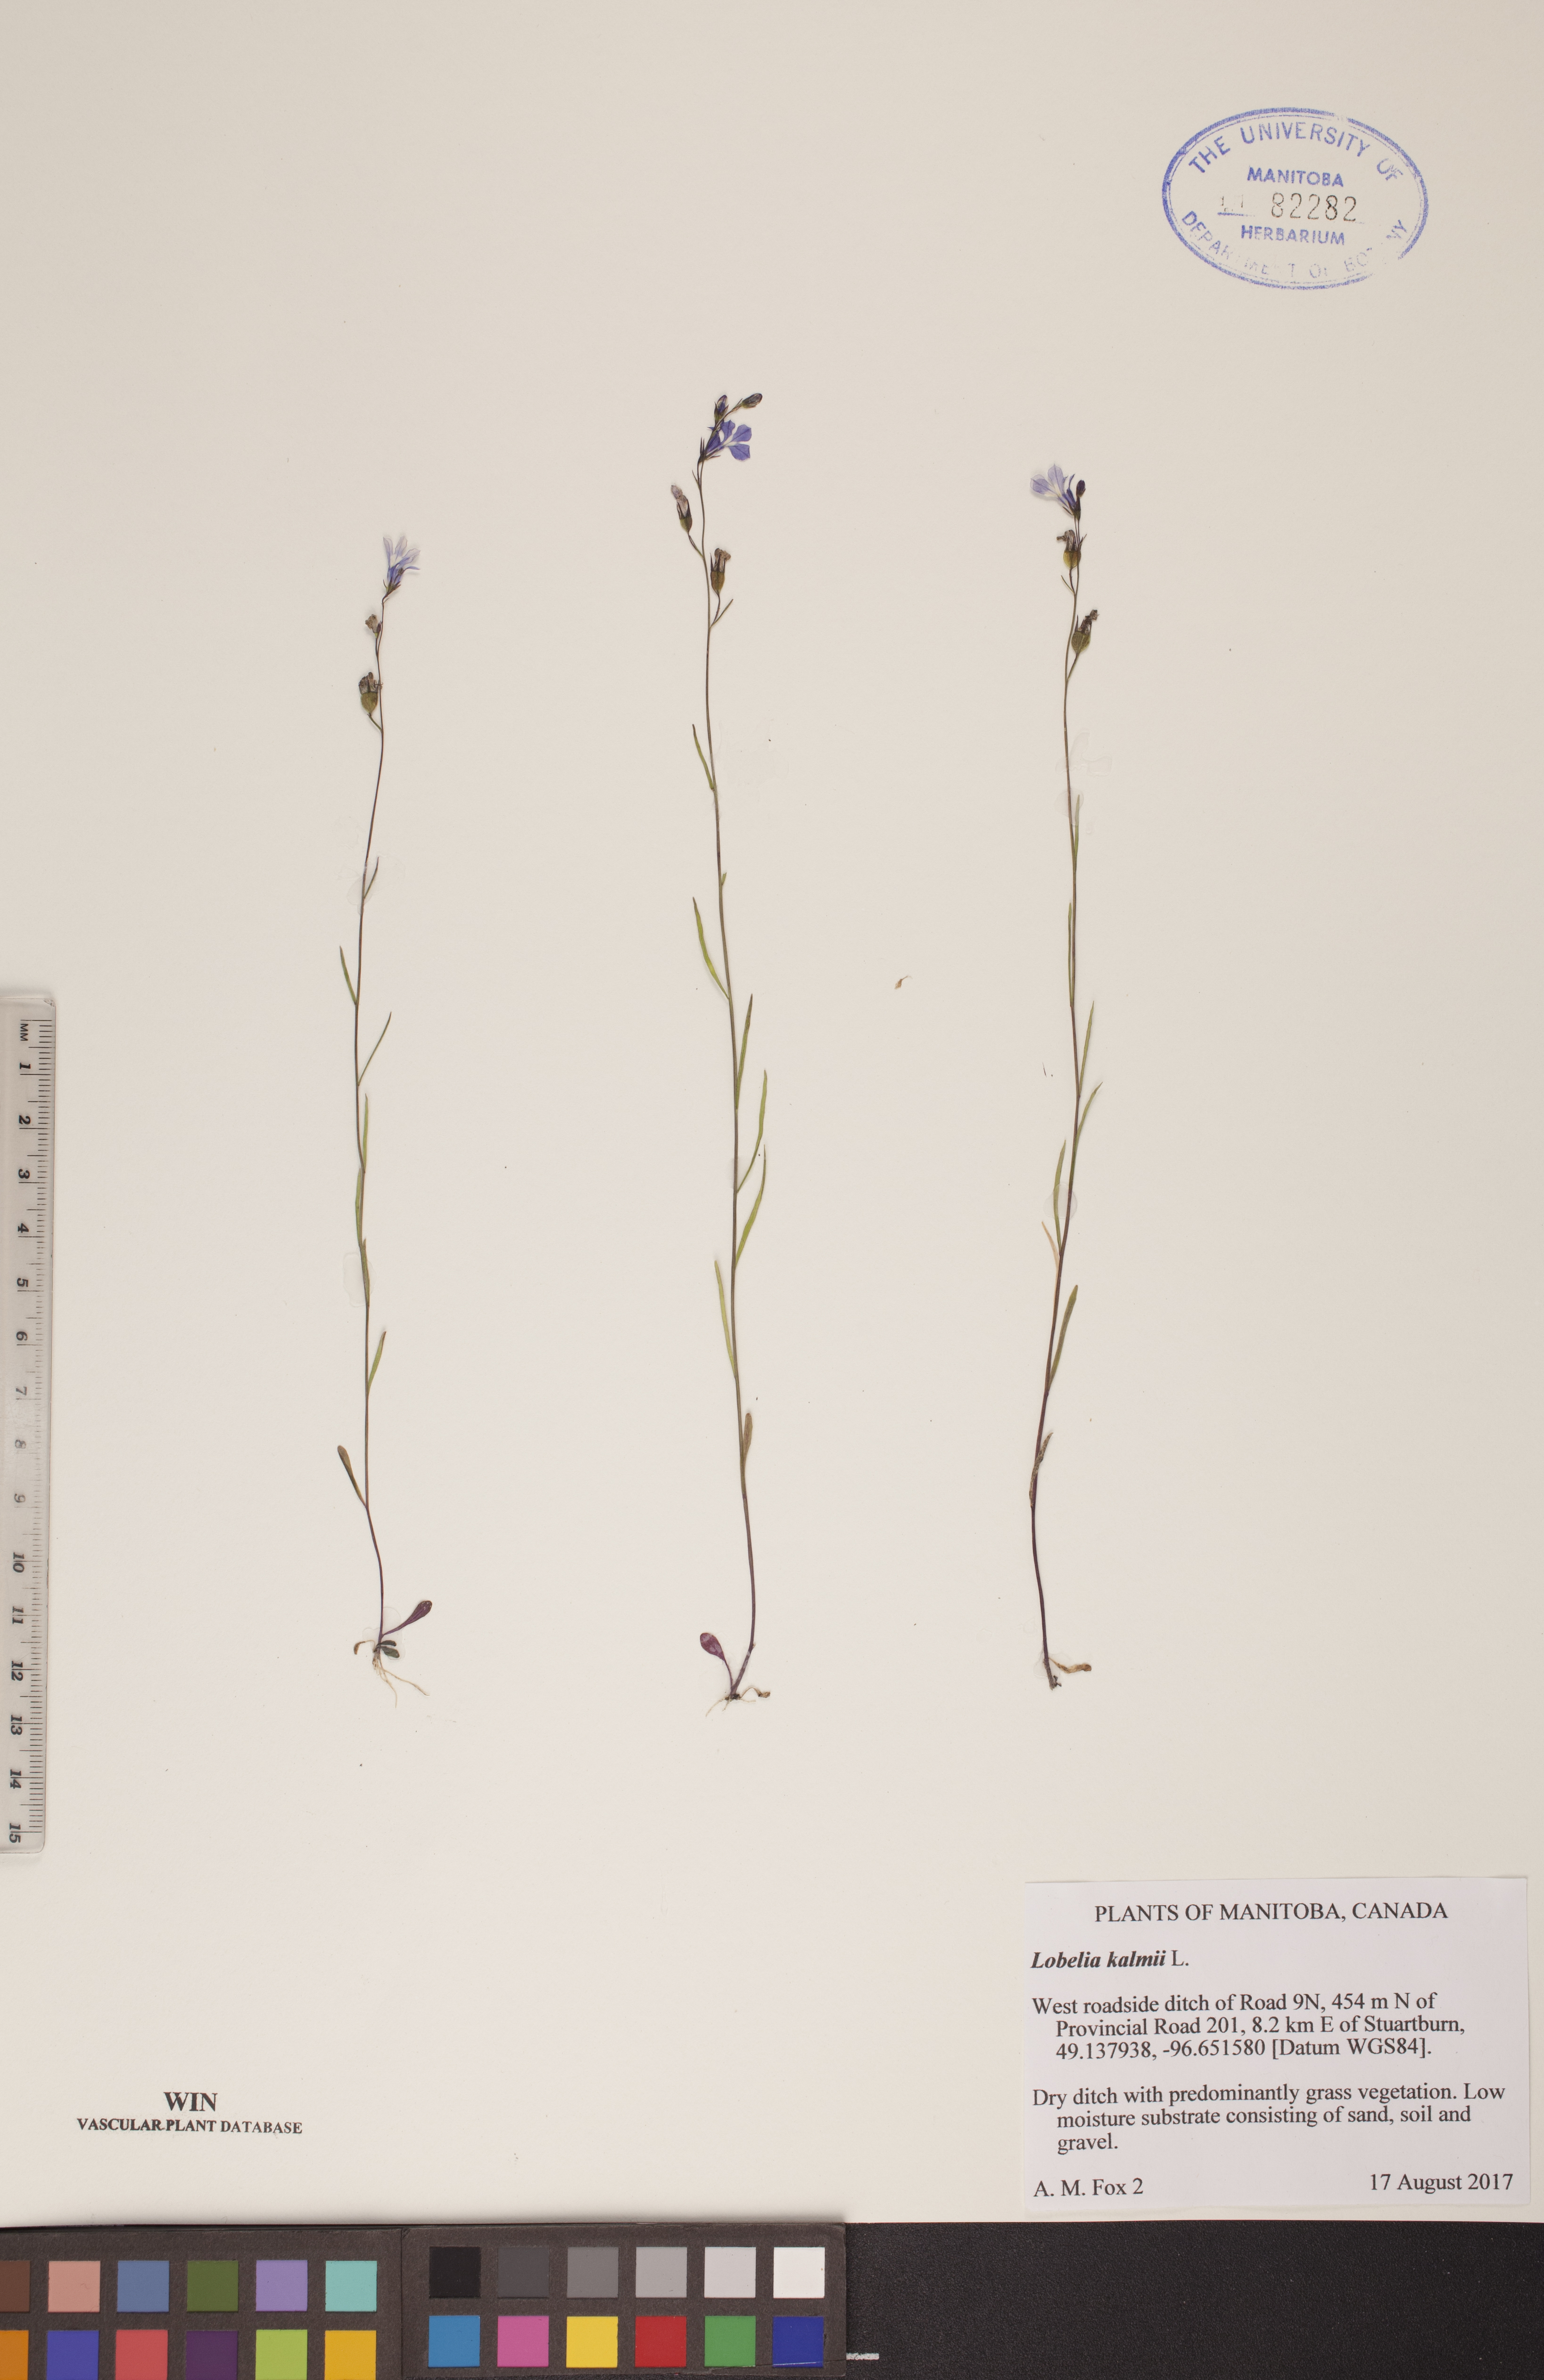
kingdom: Plantae
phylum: Tracheophyta
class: Magnoliopsida
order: Asterales
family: Campanulaceae
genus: Lobelia
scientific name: Lobelia kalmii
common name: Kalm's lobelia
